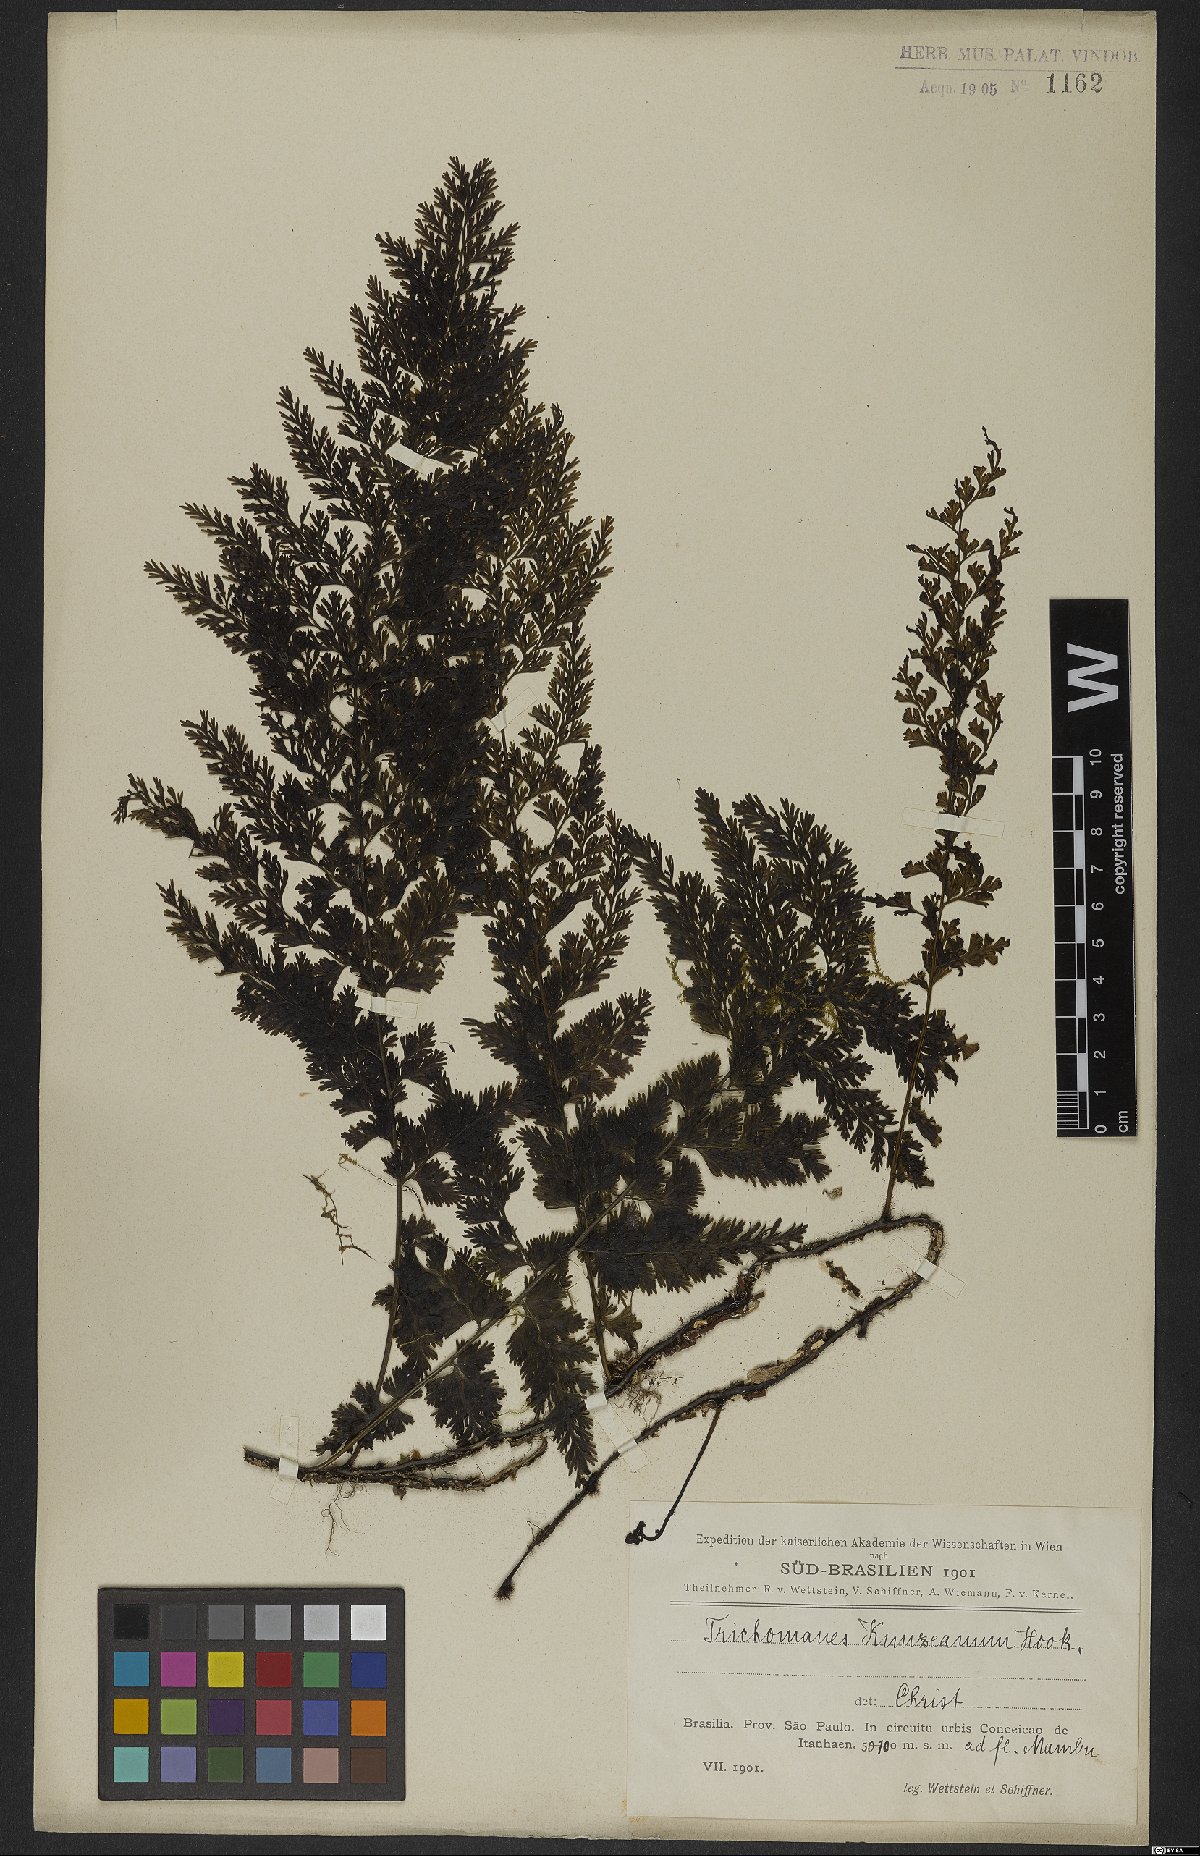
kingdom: Plantae
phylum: Tracheophyta
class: Polypodiopsida
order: Hymenophyllales
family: Hymenophyllaceae
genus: Vandenboschia
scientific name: Vandenboschia radicans
